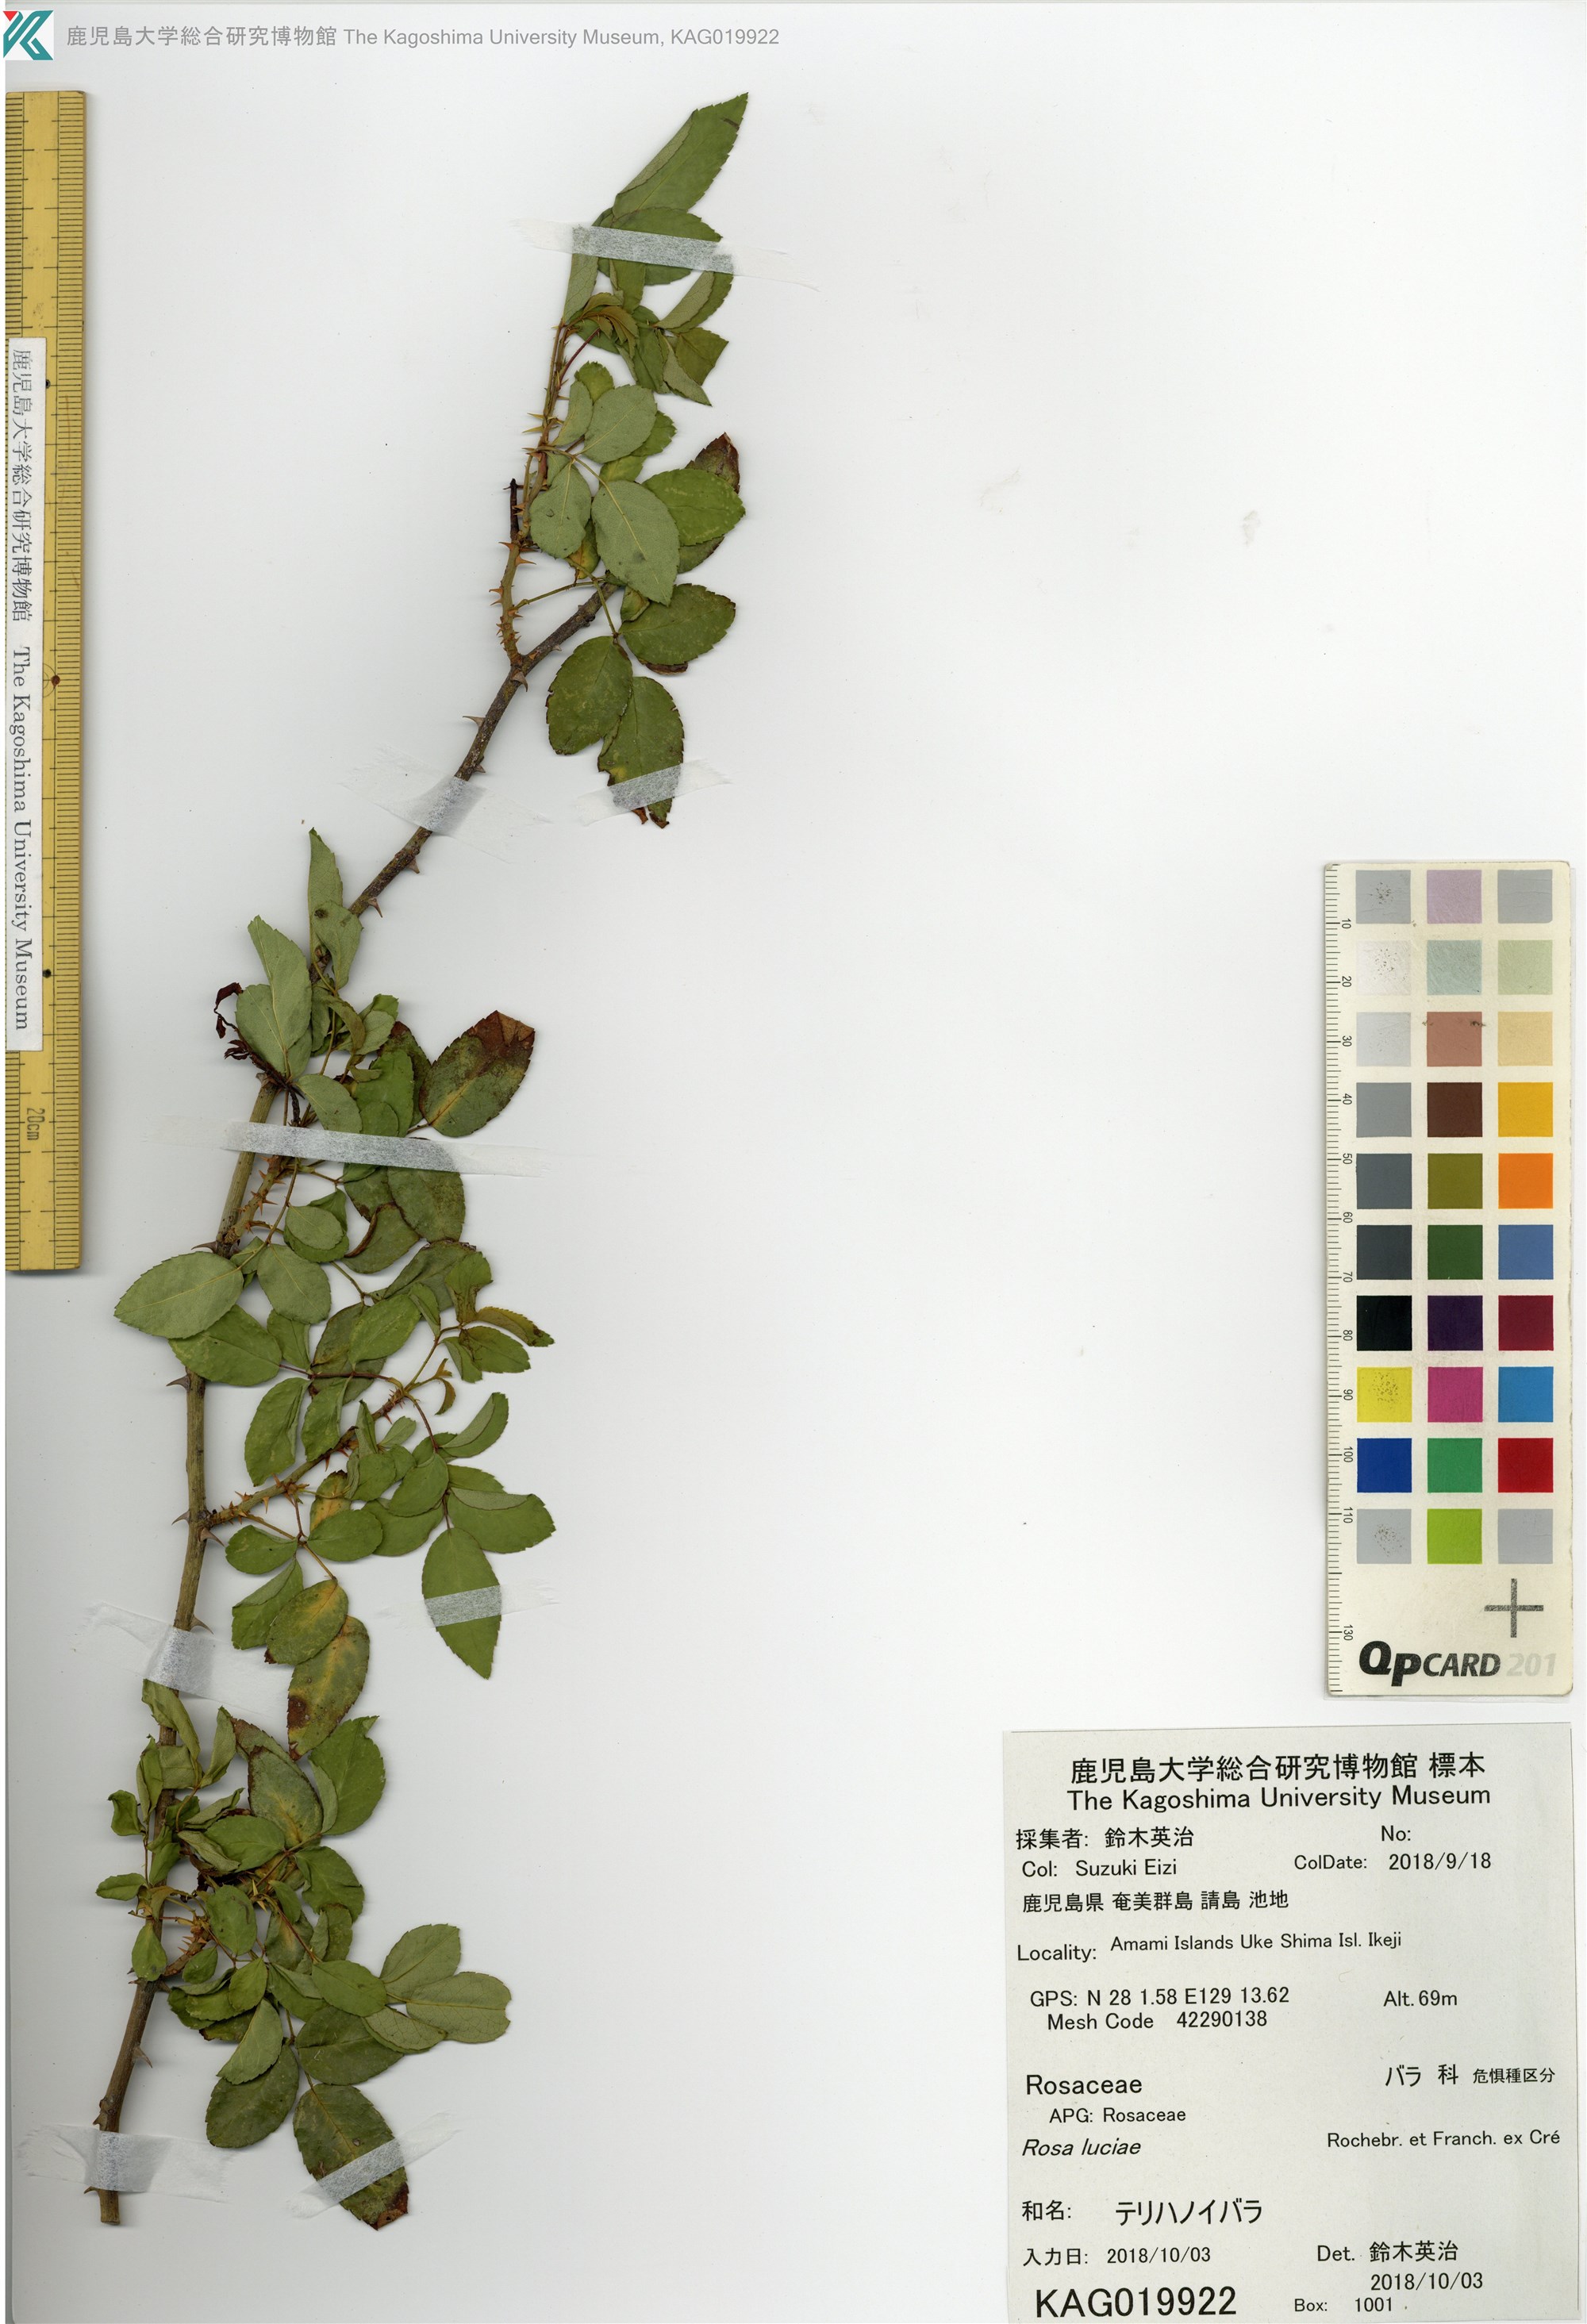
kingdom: Plantae
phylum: Tracheophyta
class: Magnoliopsida
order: Rosales
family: Rosaceae
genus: Rosa
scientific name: Rosa luciae
